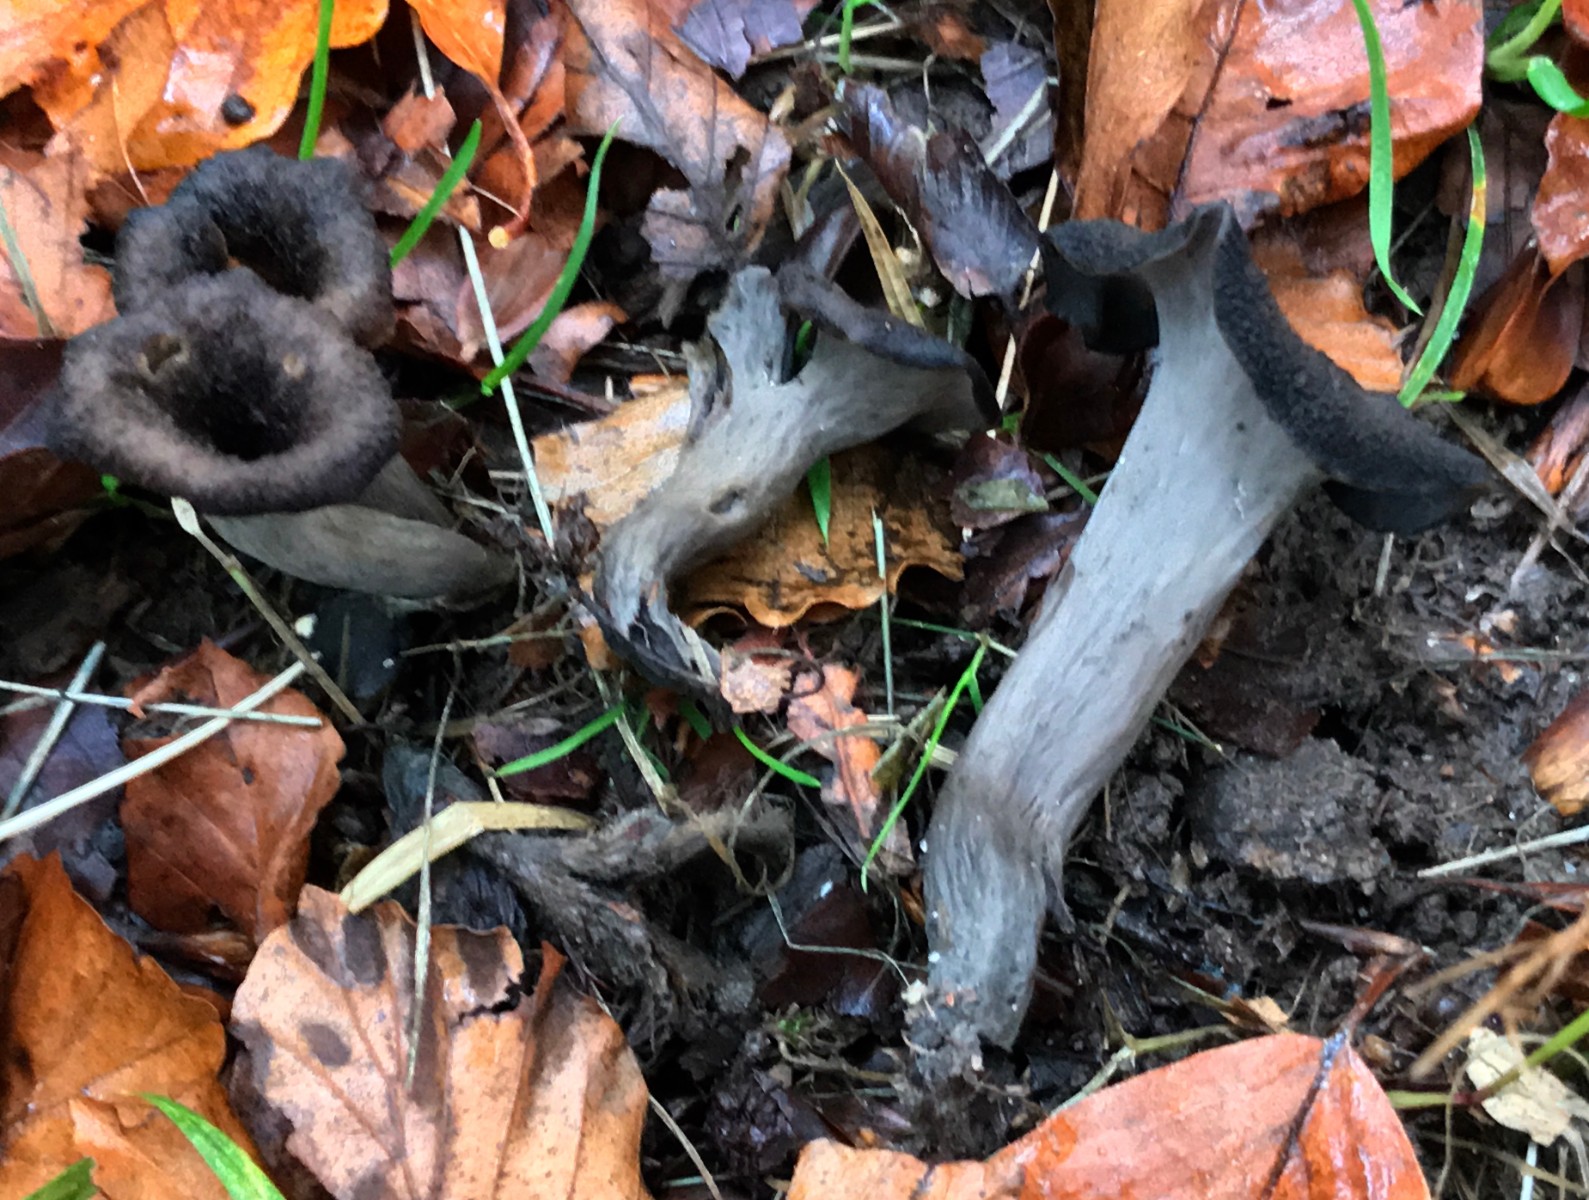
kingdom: Fungi
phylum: Basidiomycota
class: Agaricomycetes
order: Cantharellales
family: Hydnaceae
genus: Craterellus
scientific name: Craterellus cornucopioides
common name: trompetsvamp
